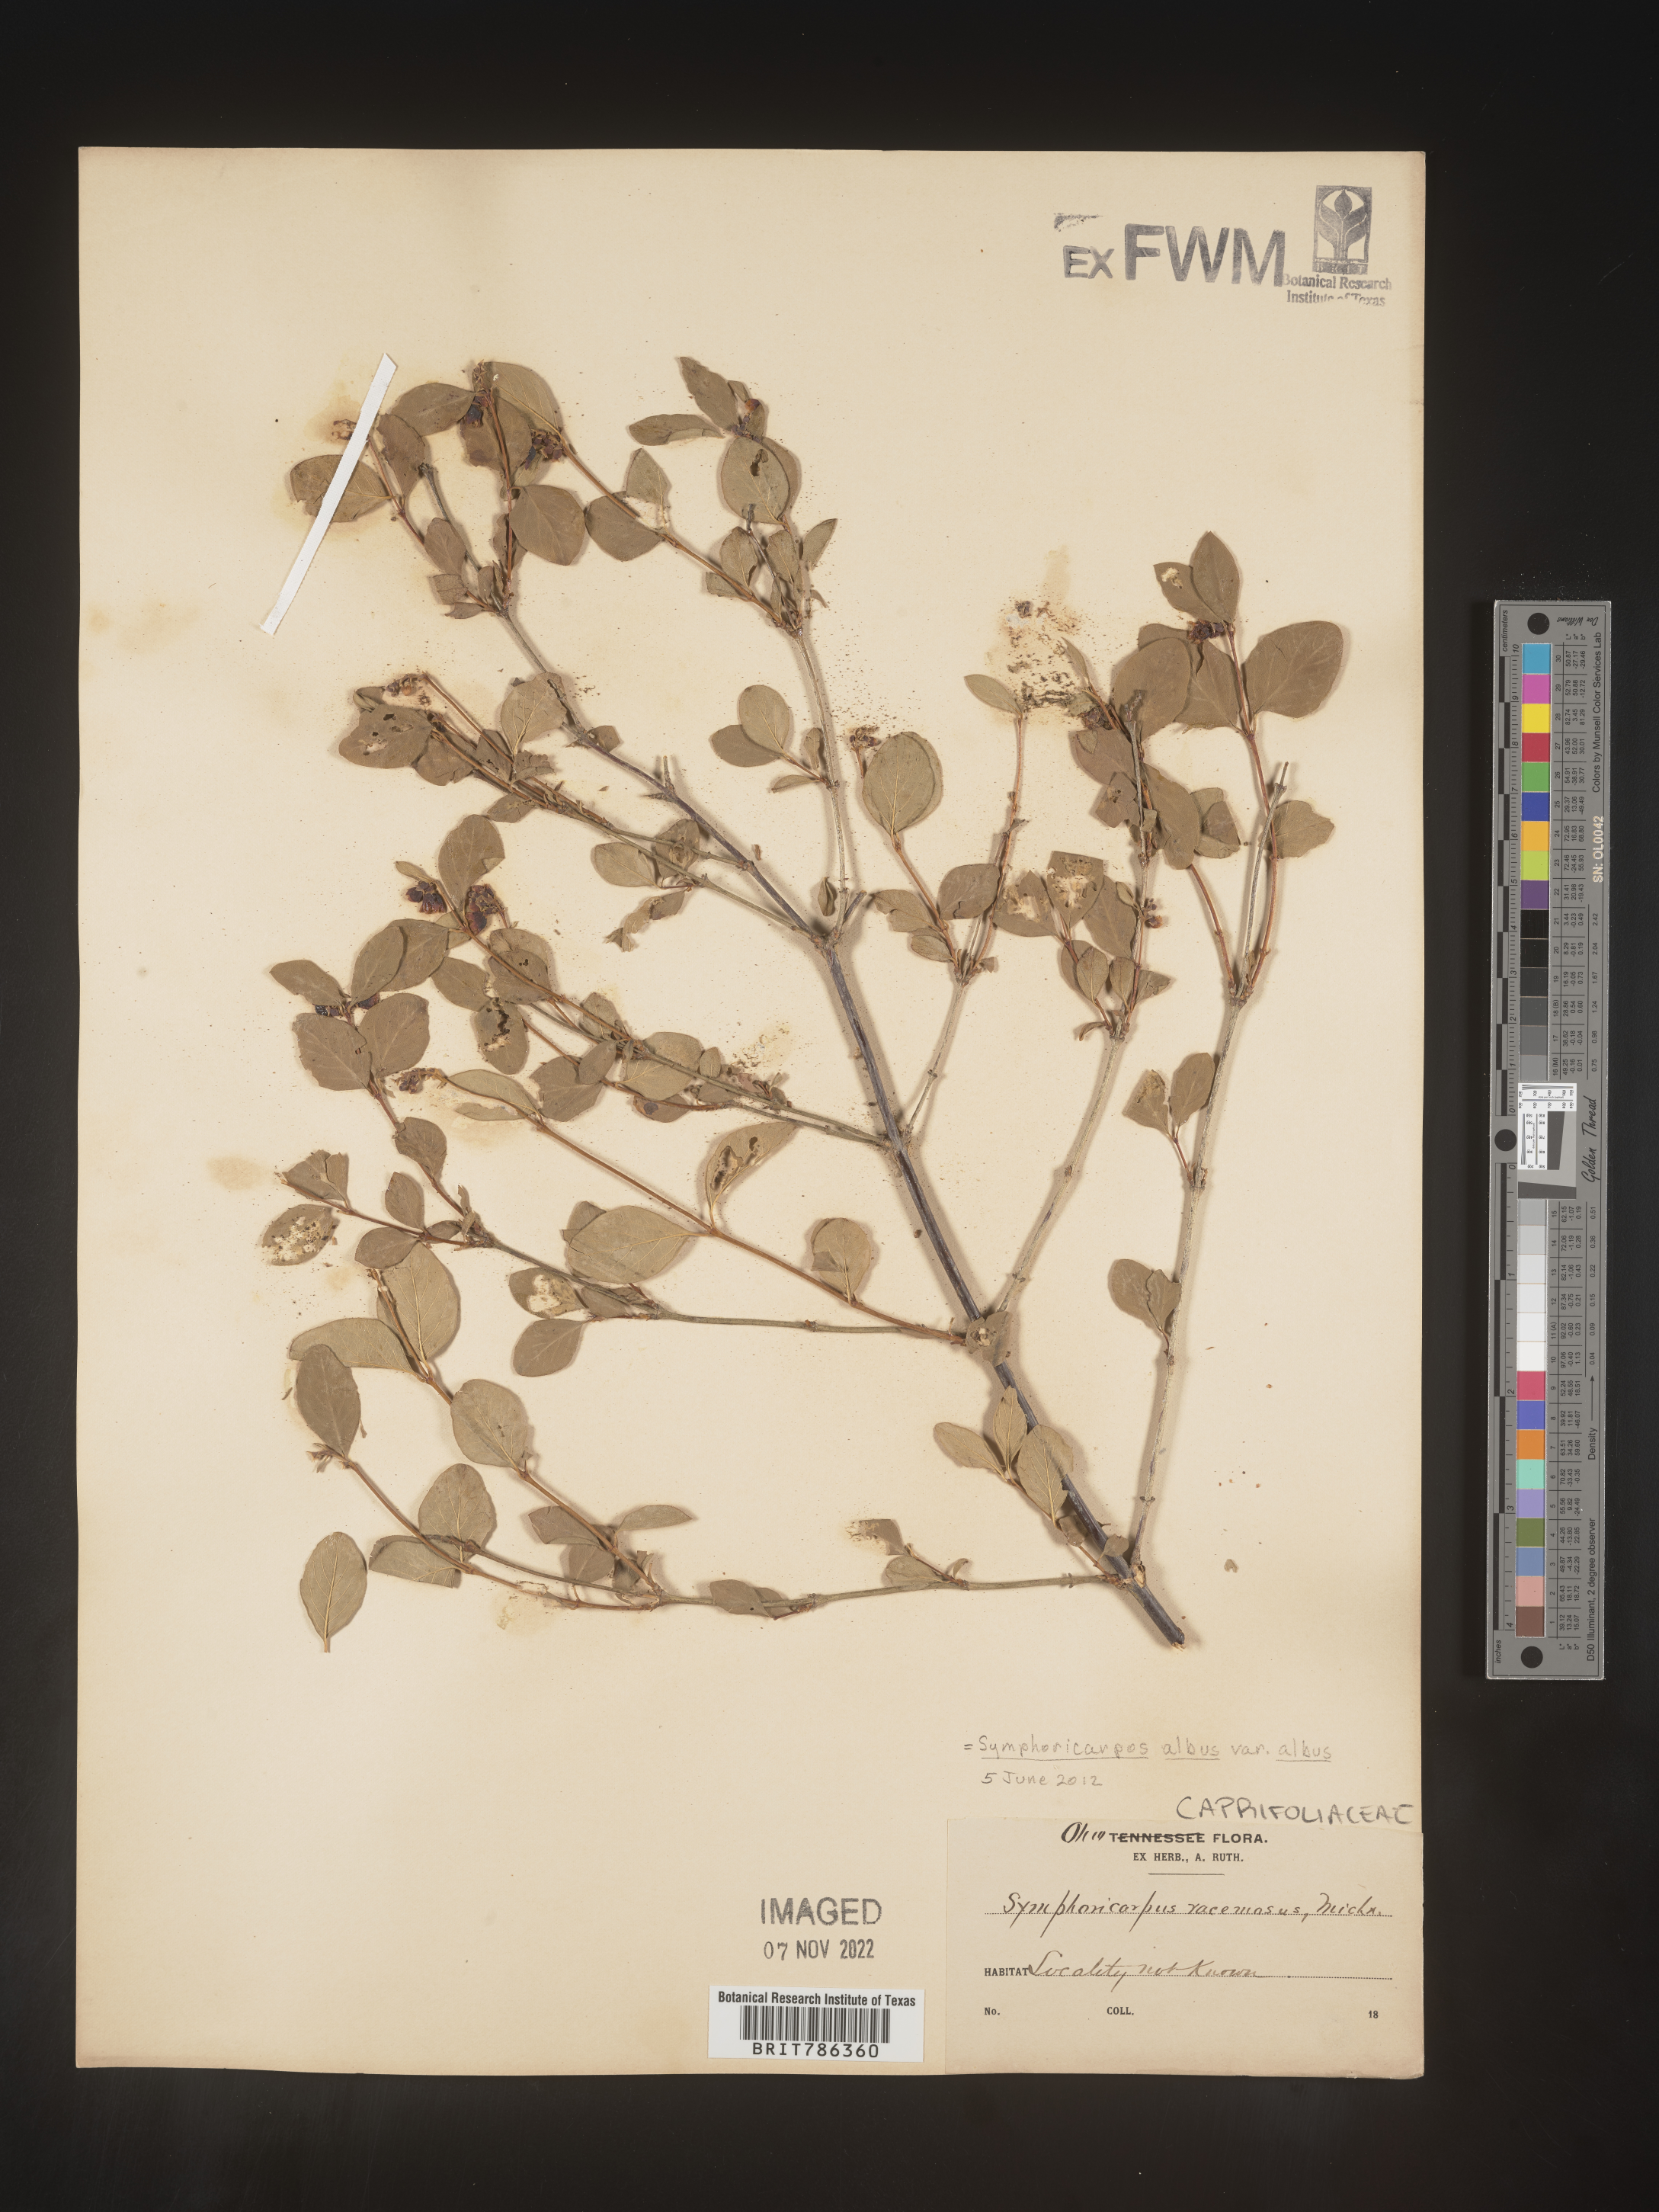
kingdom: Plantae
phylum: Tracheophyta
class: Magnoliopsida
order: Dipsacales
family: Caprifoliaceae
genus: Symphoricarpos
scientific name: Symphoricarpos albus
